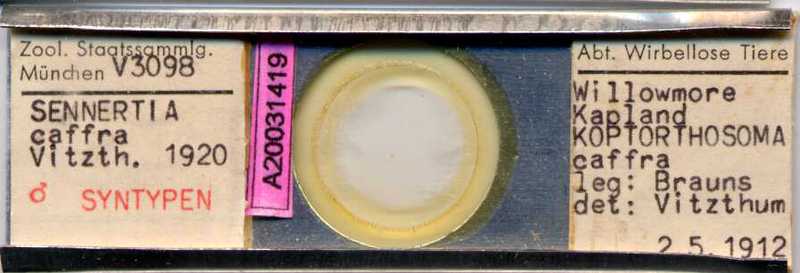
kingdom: Animalia
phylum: Arthropoda
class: Arachnida
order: Sarcoptiformes
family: Chaetodactylidae
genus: Sennertia
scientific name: Sennertia caffra
